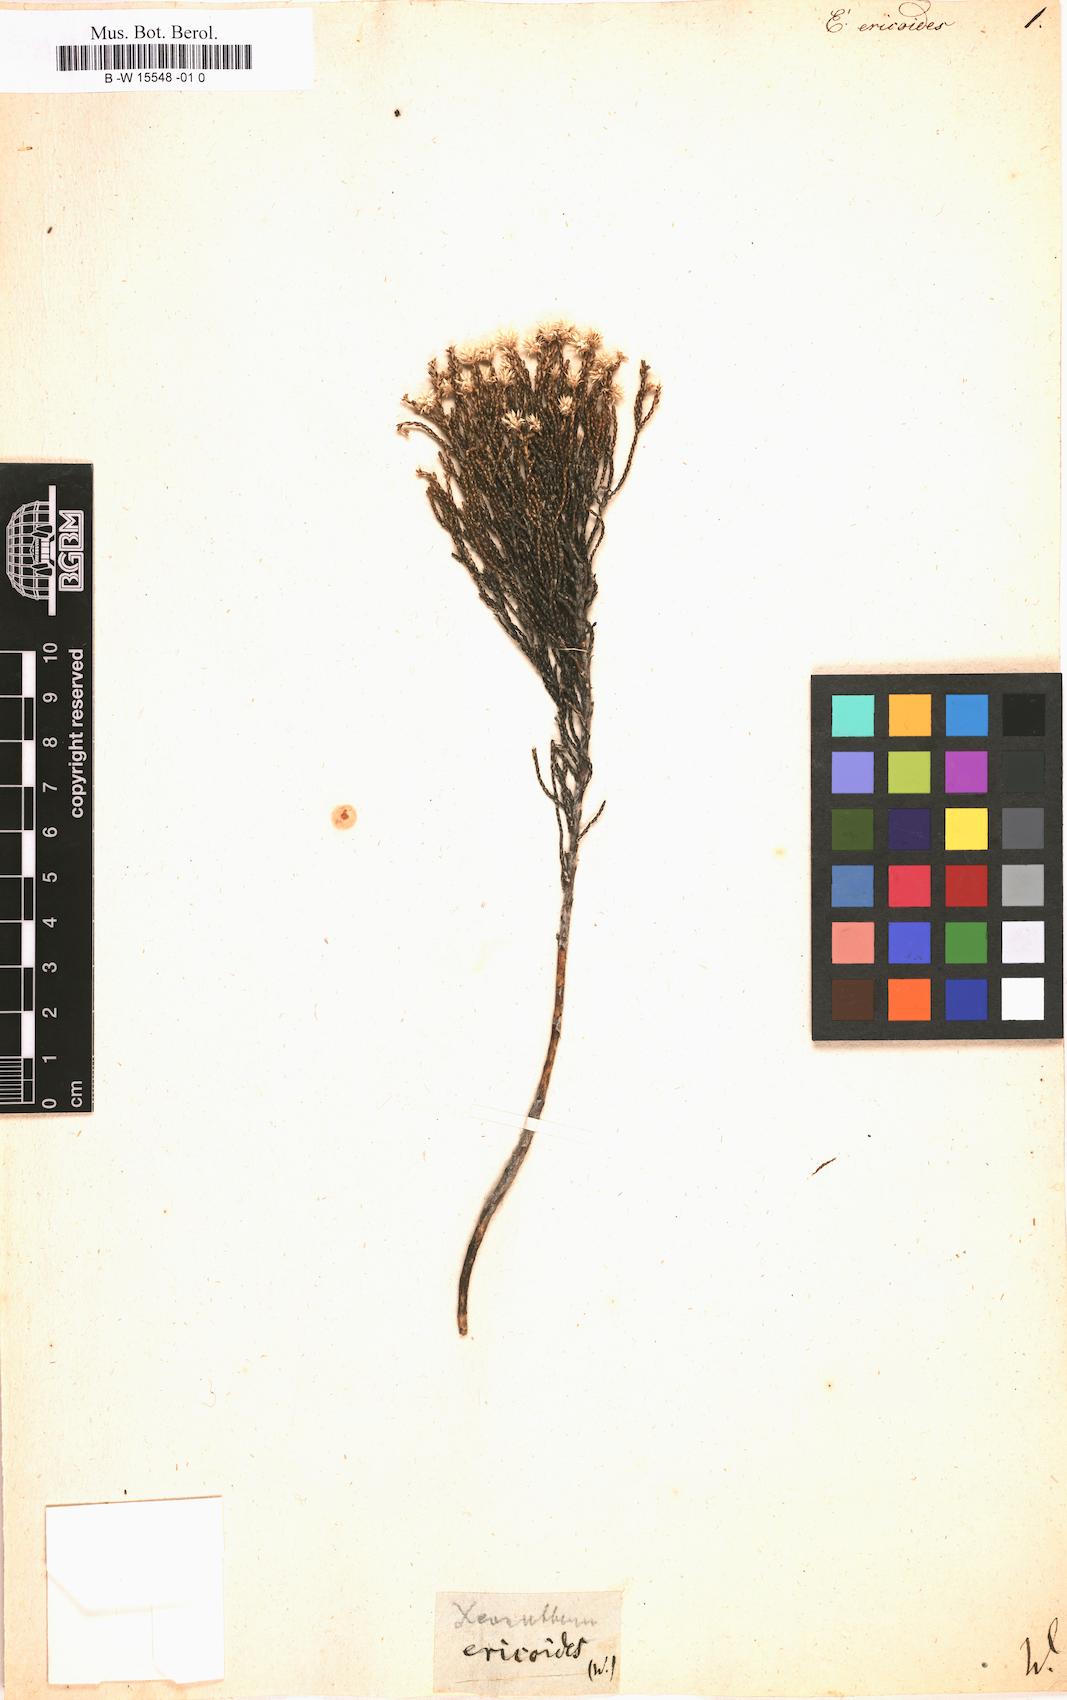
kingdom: Plantae
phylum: Tracheophyta
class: Magnoliopsida
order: Asterales
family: Asteraceae
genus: Helichrysum
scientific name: Helichrysum
